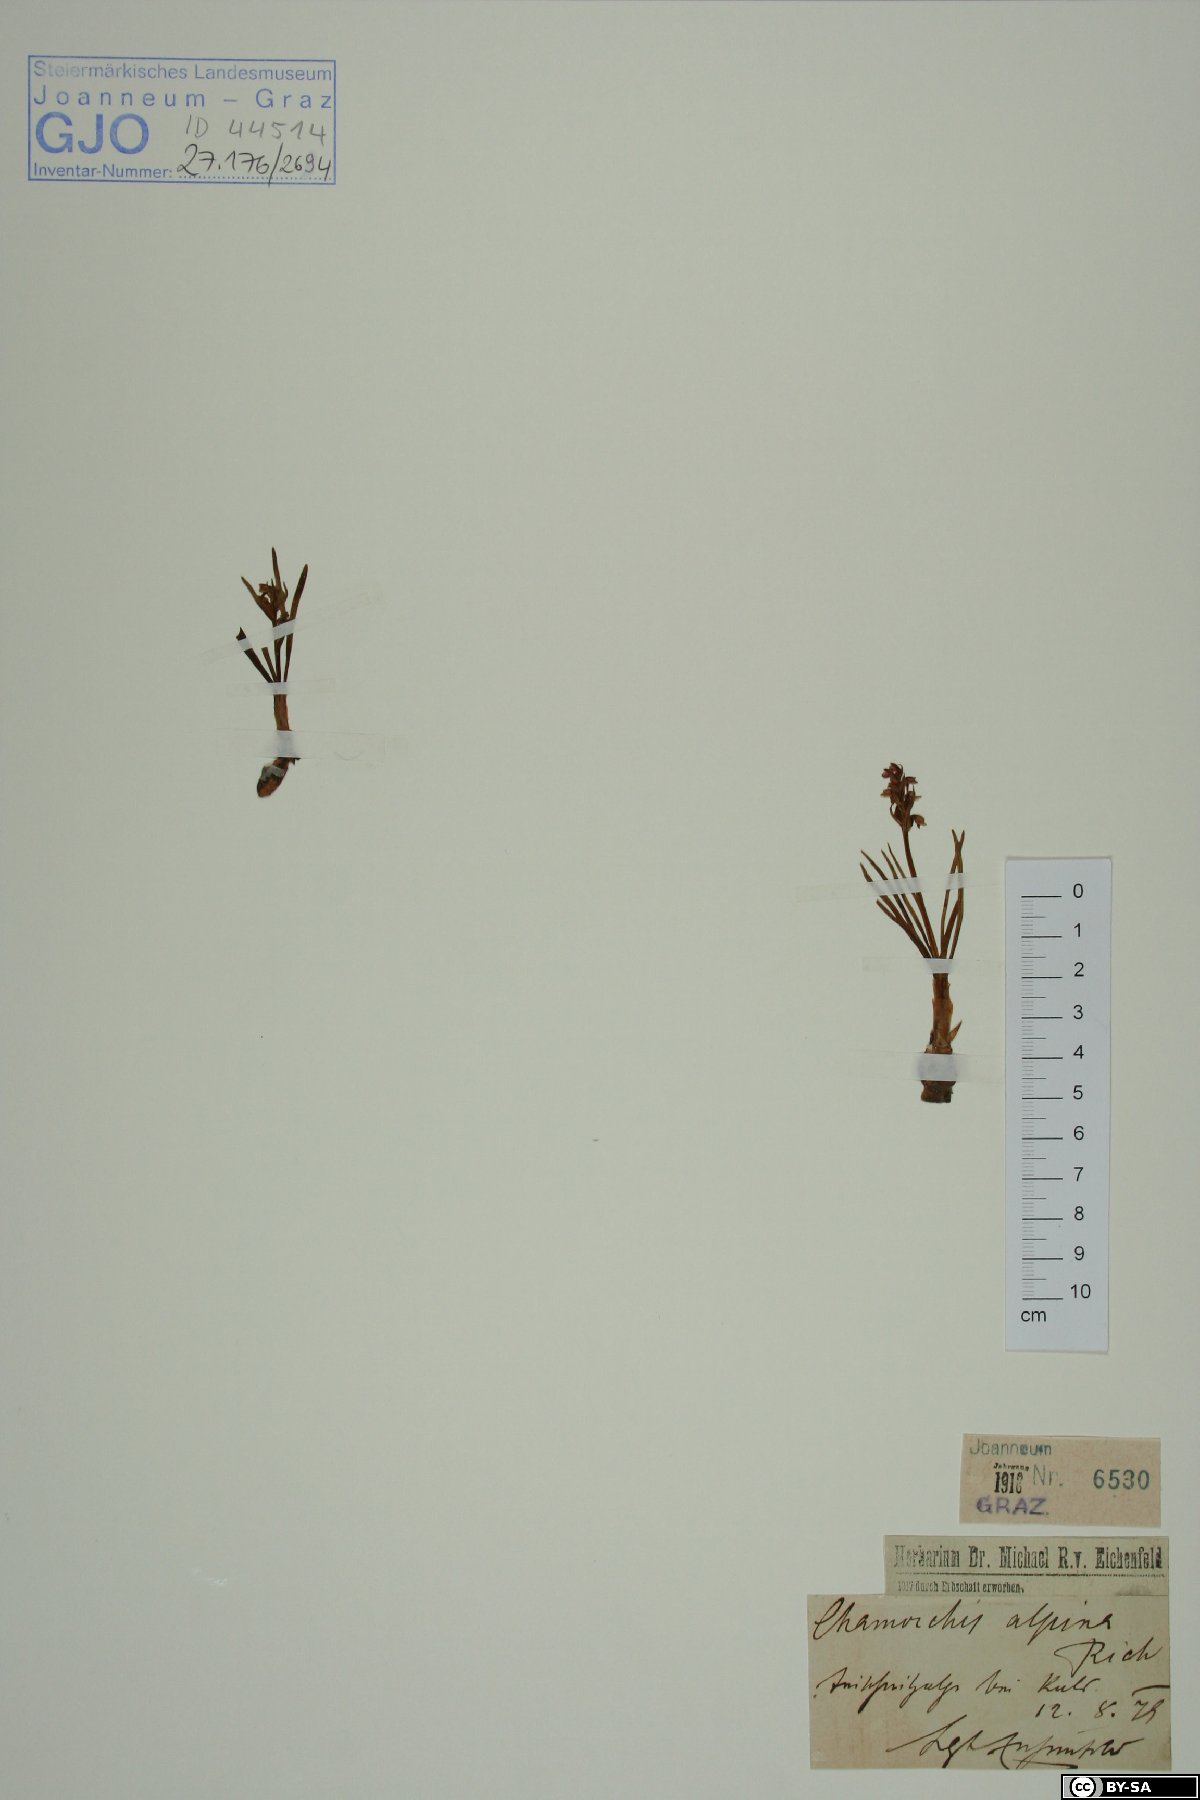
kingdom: Plantae
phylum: Tracheophyta
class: Liliopsida
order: Asparagales
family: Orchidaceae
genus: Chamorchis
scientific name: Chamorchis alpina
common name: Alpine chamorchis
